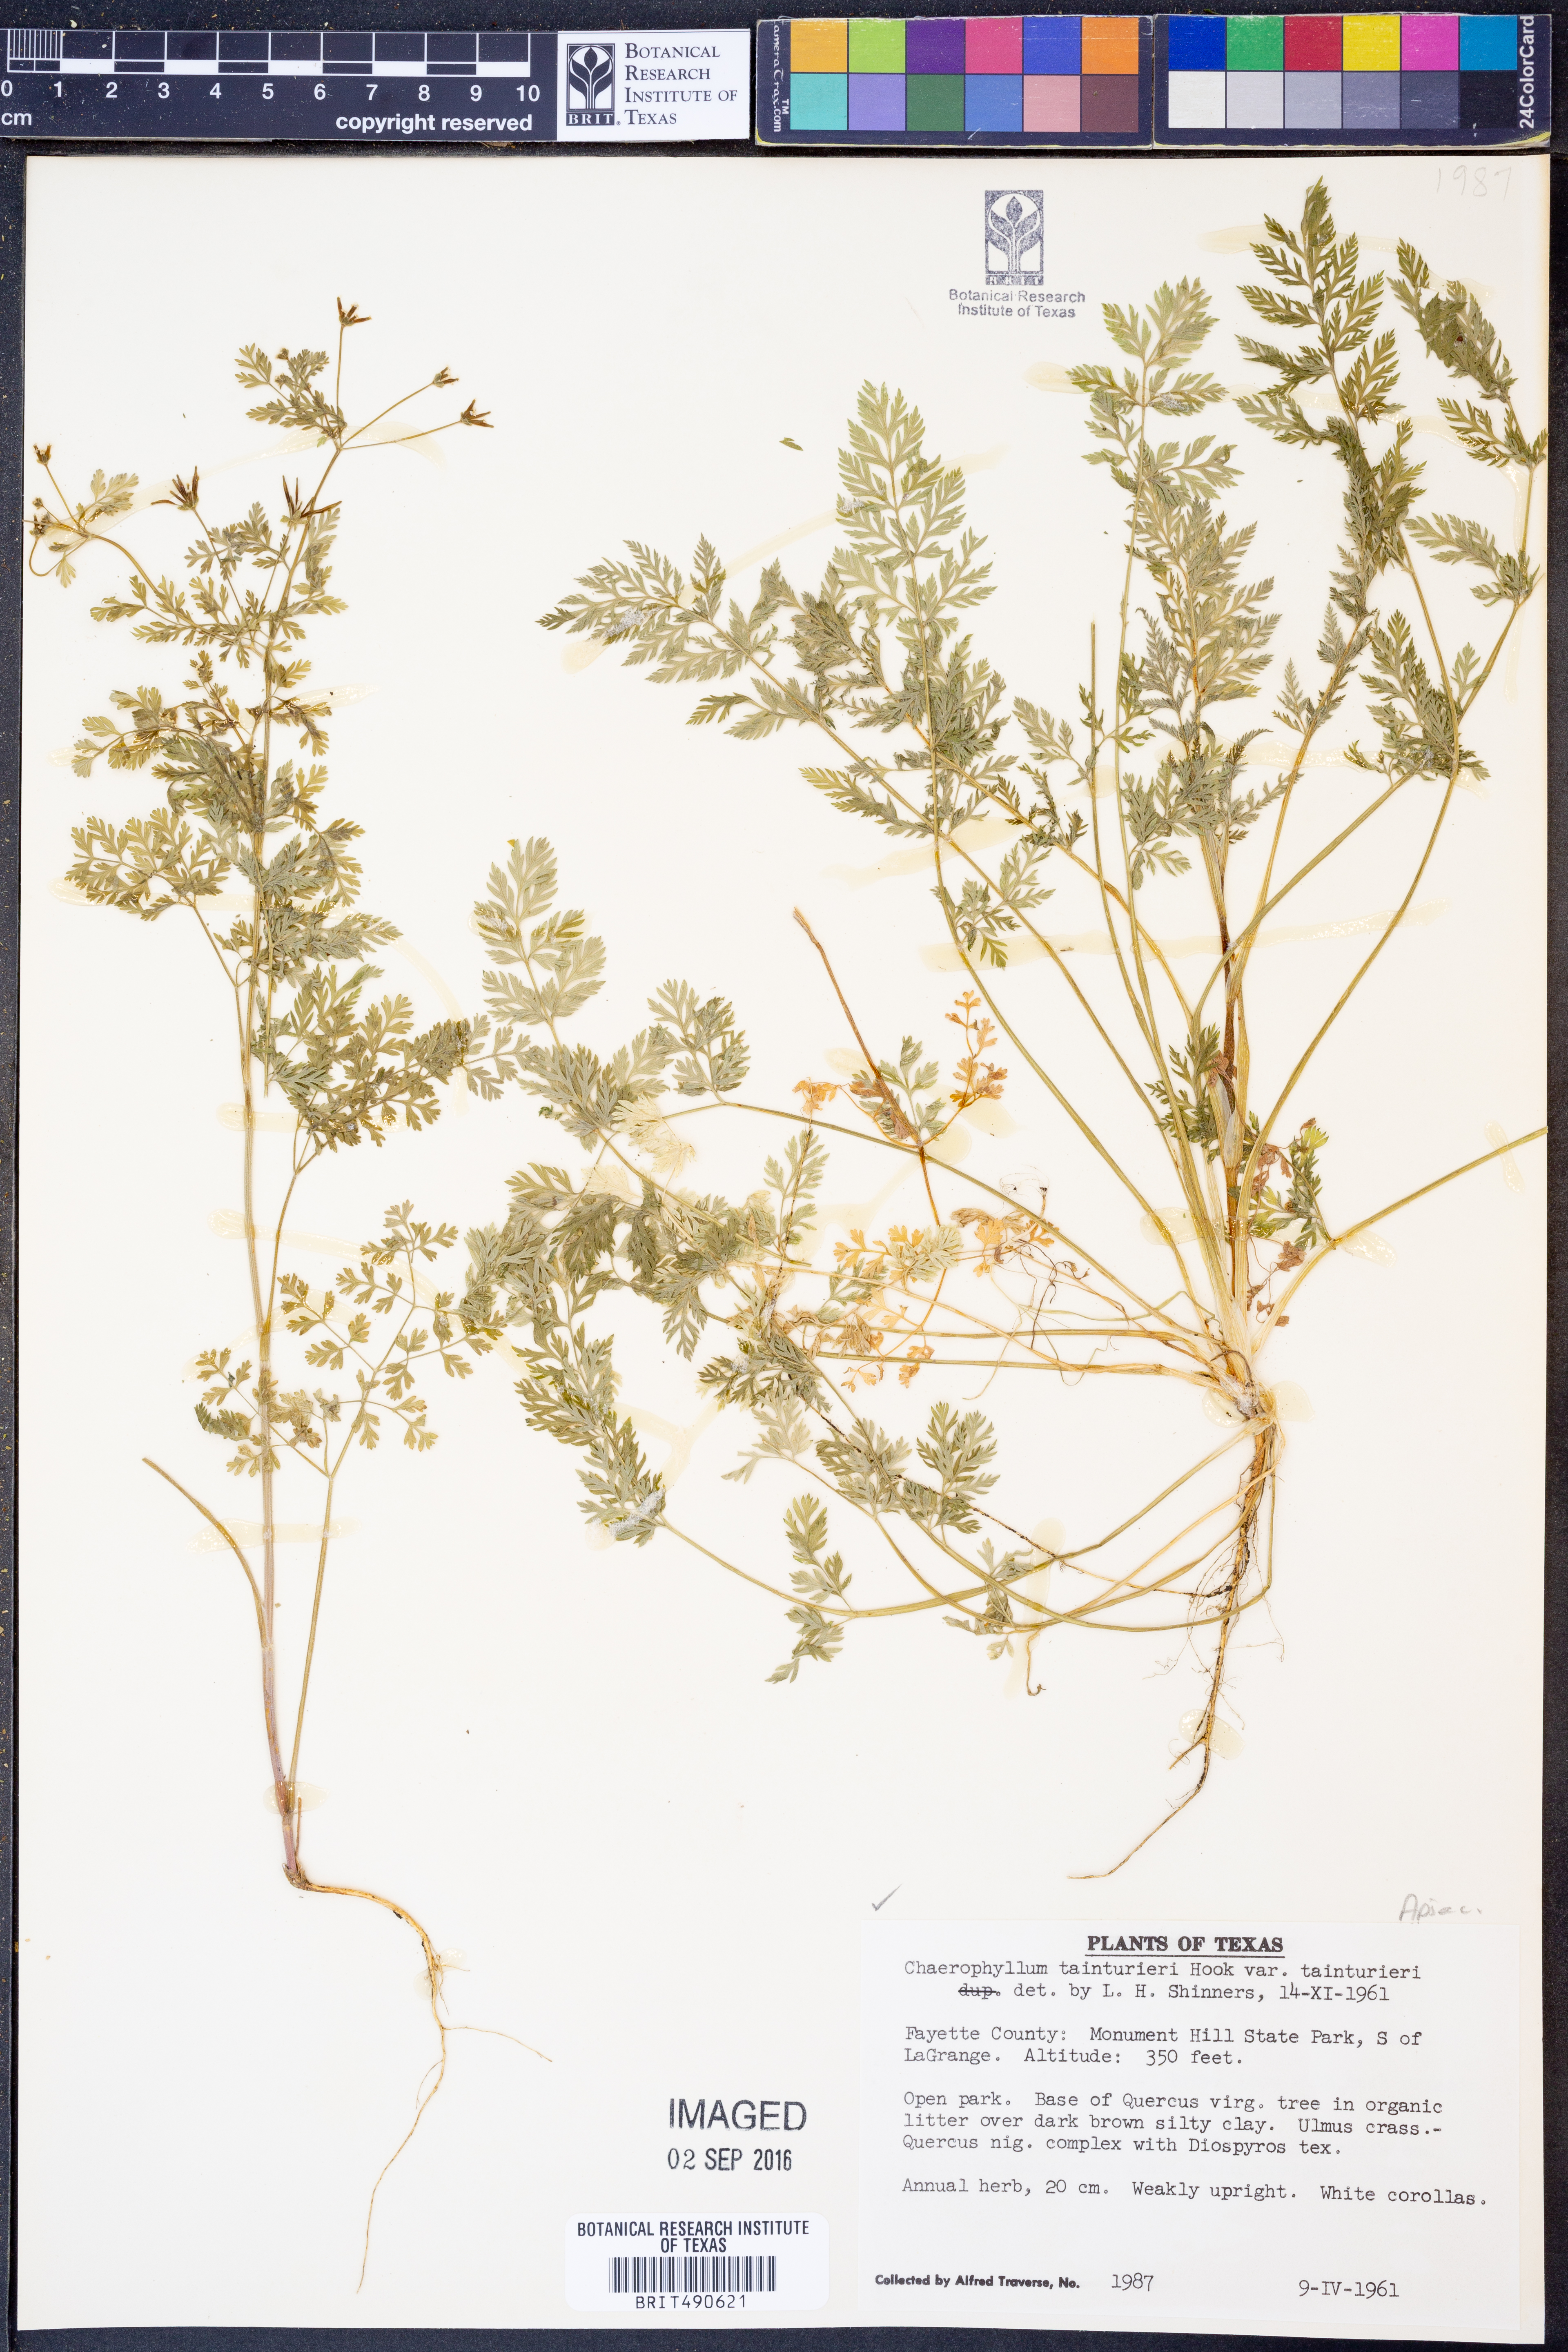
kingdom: Plantae
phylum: Tracheophyta
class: Magnoliopsida
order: Apiales
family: Apiaceae
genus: Chaerophyllum
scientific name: Chaerophyllum tainturieri
